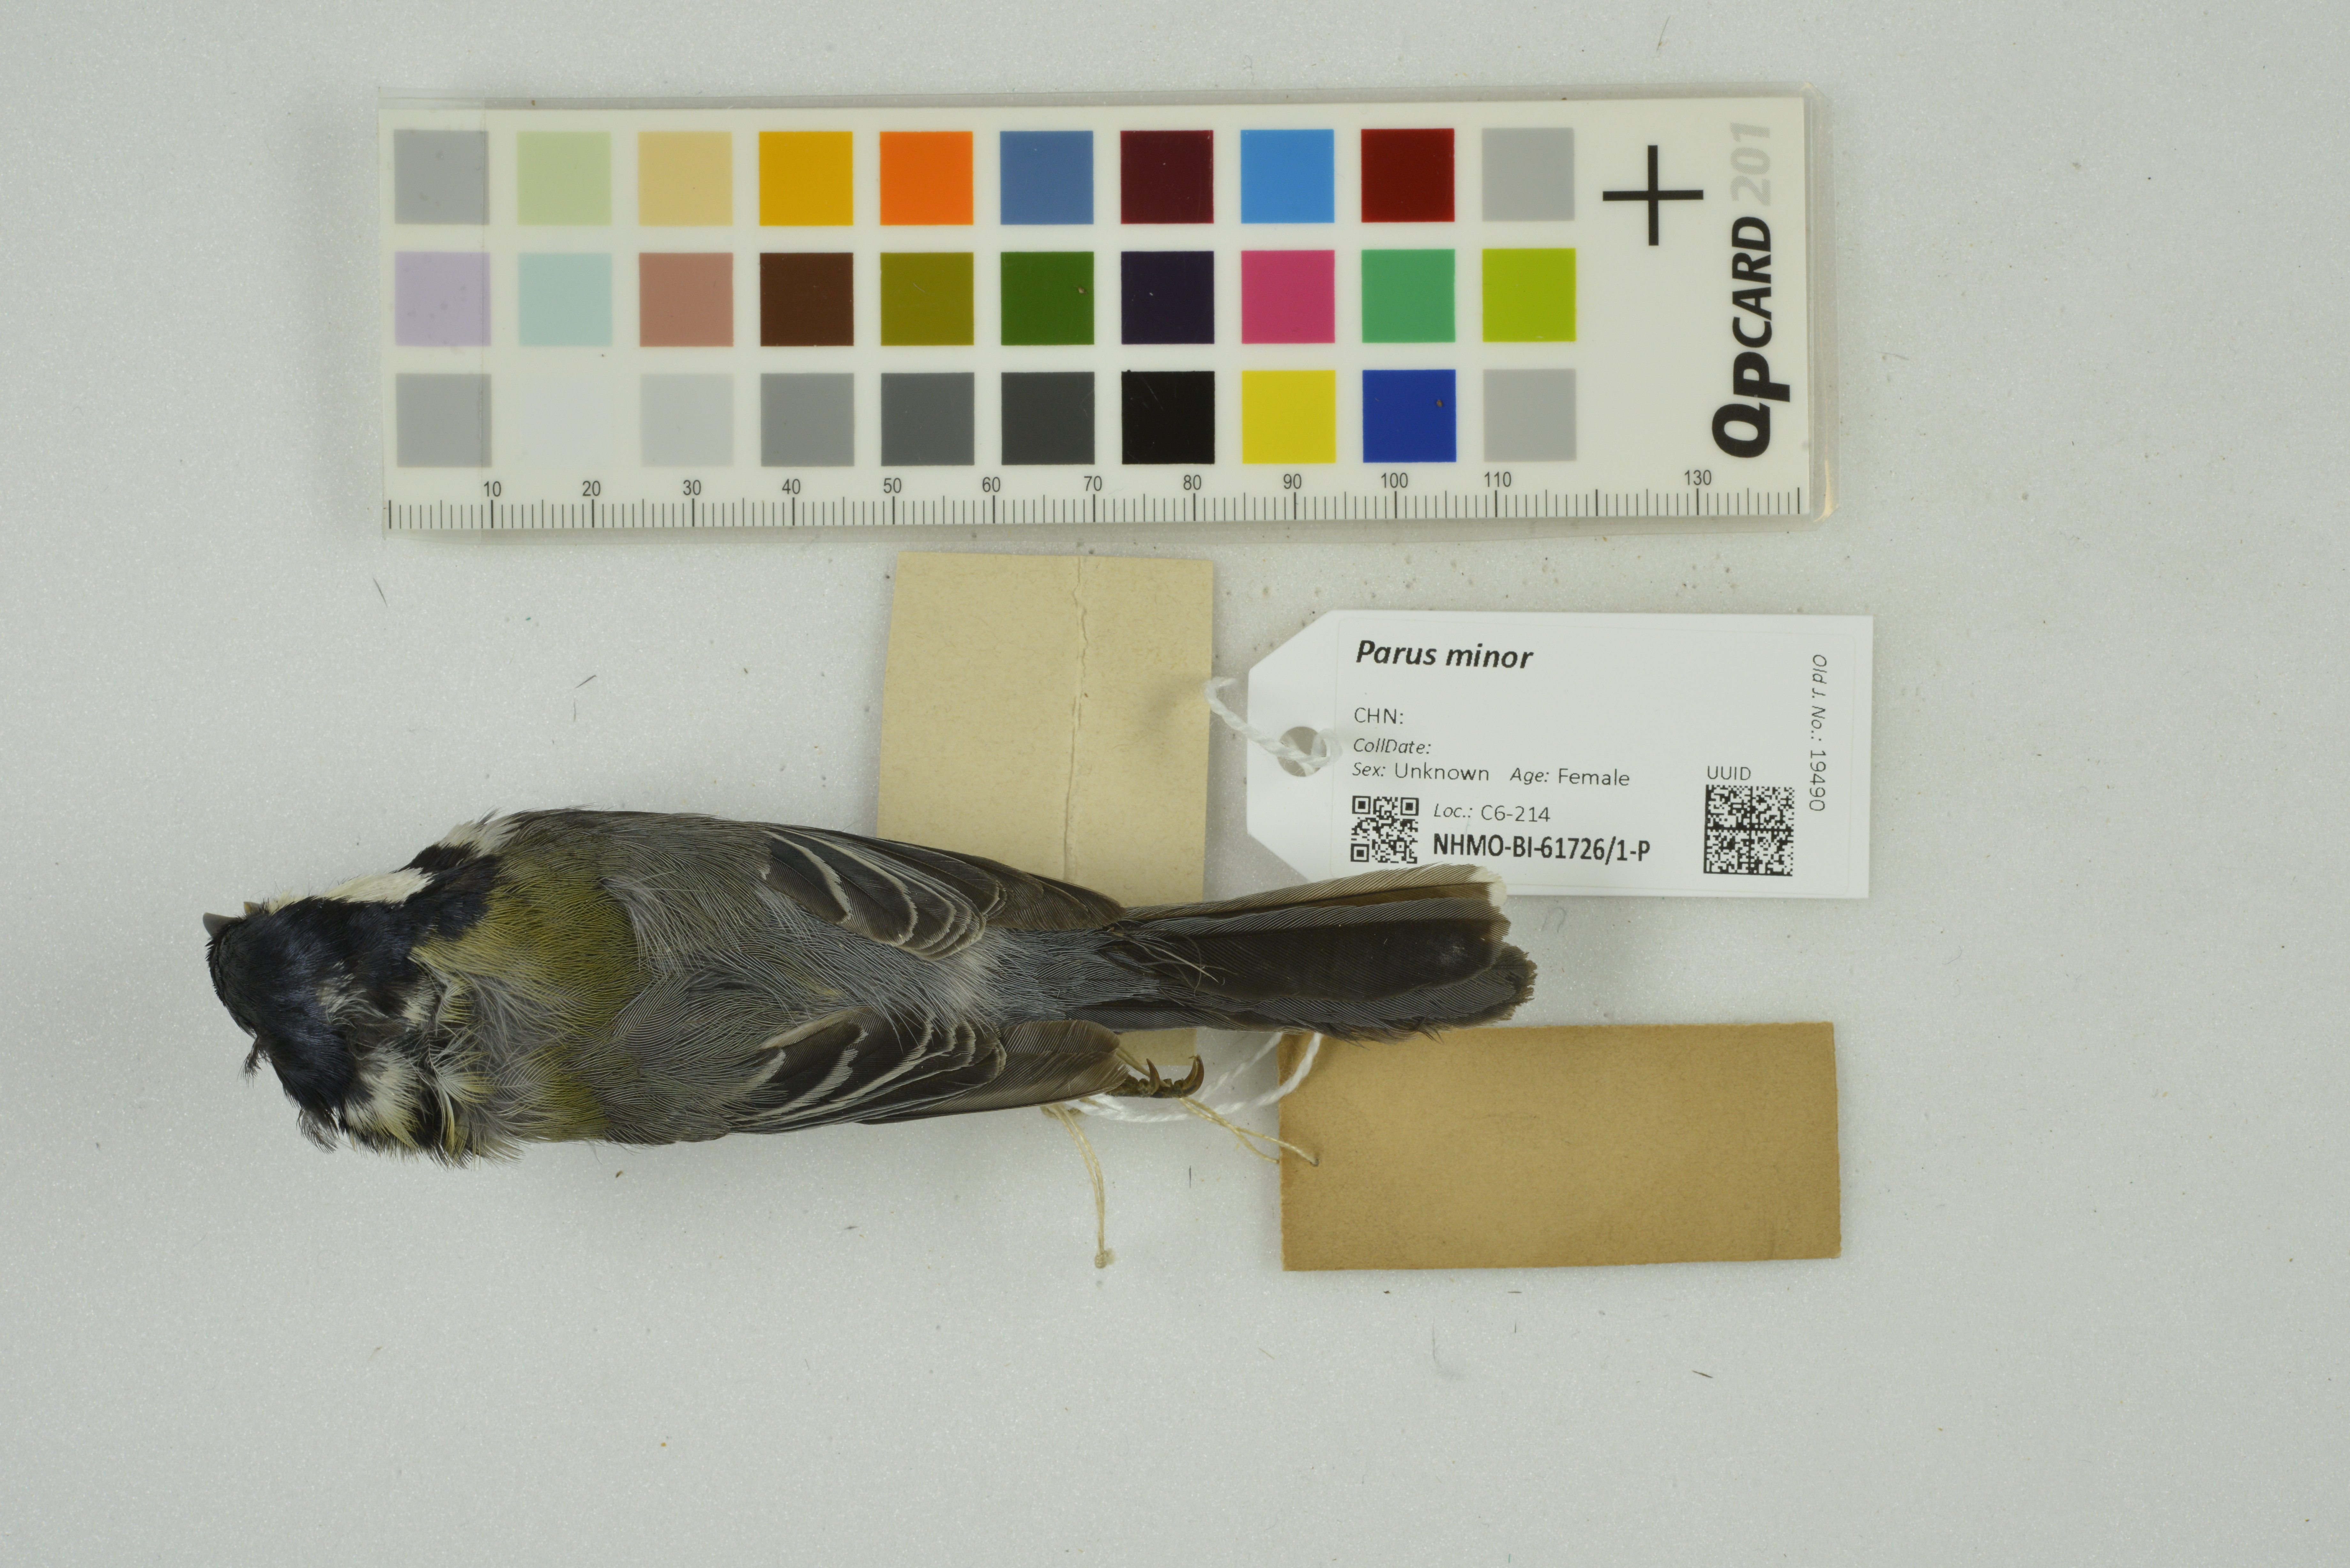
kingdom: Animalia
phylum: Chordata
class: Aves
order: Passeriformes
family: Paridae
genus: Parus
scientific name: Parus minor
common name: Japanese tit
